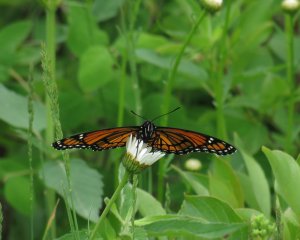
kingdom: Animalia
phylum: Arthropoda
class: Insecta
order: Lepidoptera
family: Nymphalidae
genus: Limenitis
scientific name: Limenitis archippus
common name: Viceroy
